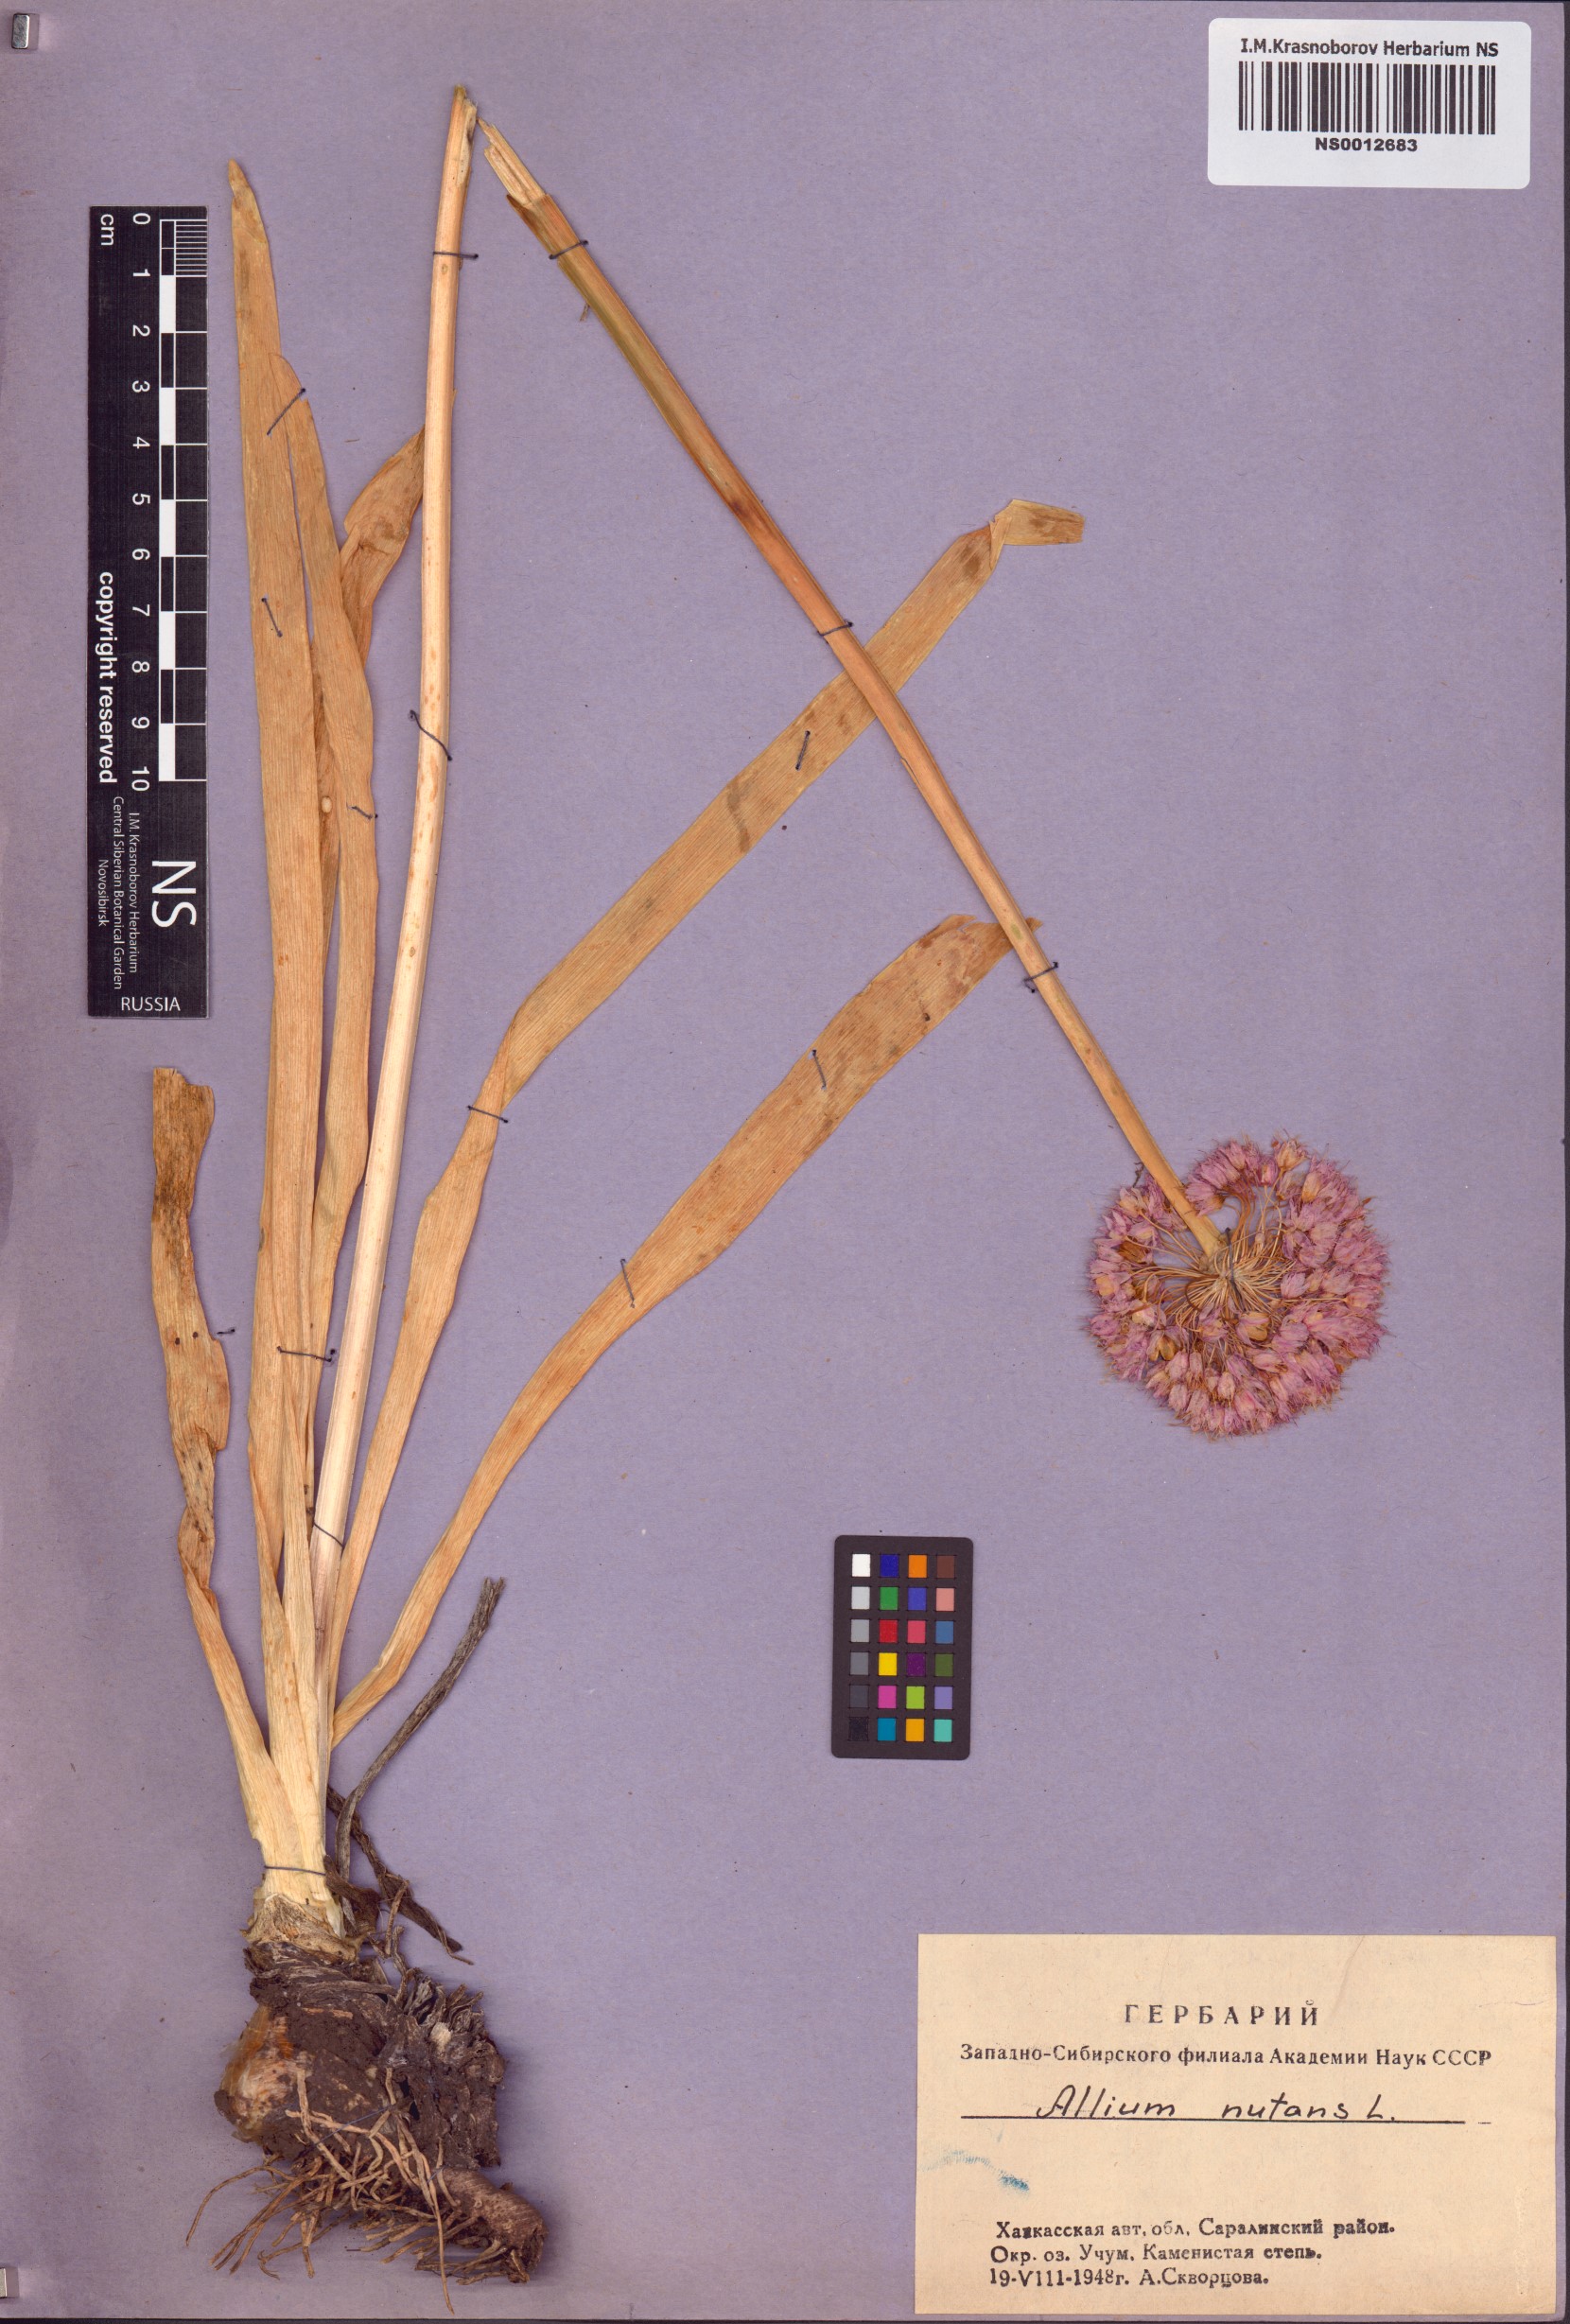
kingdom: Plantae
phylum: Tracheophyta
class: Liliopsida
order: Asparagales
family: Amaryllidaceae
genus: Allium
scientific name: Allium nutans
